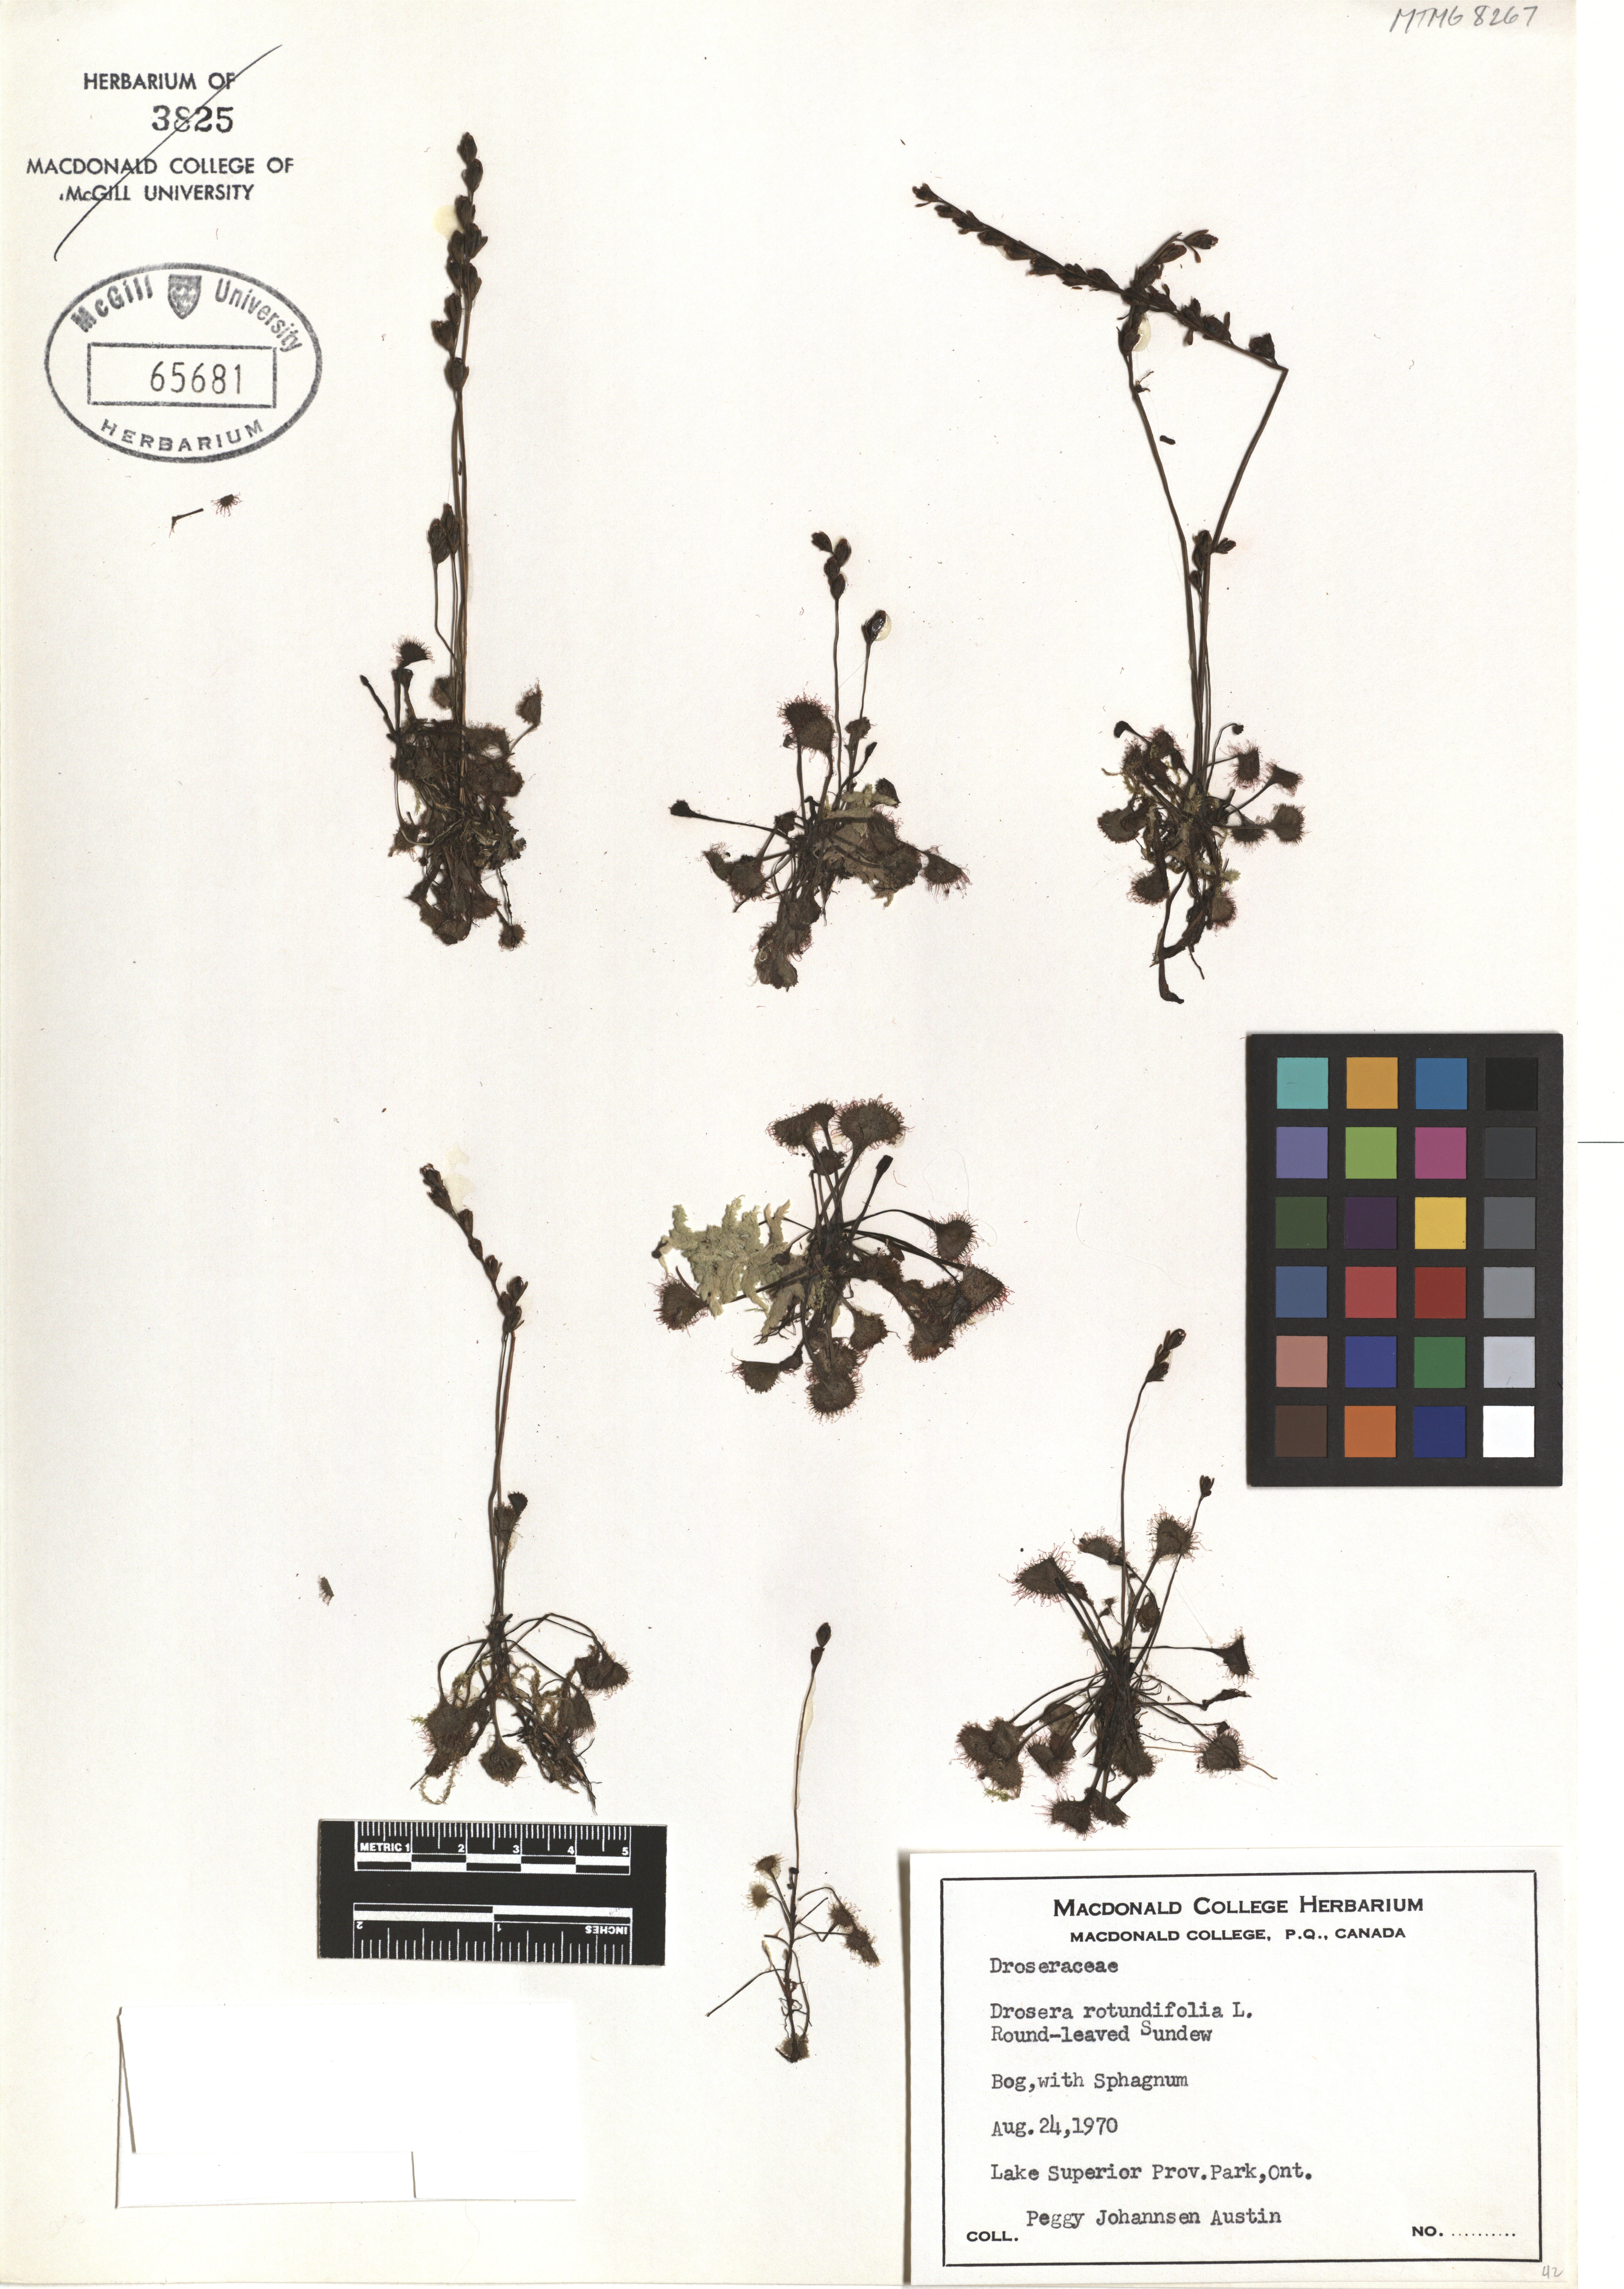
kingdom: Plantae
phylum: Tracheophyta
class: Magnoliopsida
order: Caryophyllales
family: Droseraceae
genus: Drosera
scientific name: Drosera rotundifolia
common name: Round-leaved sundew
